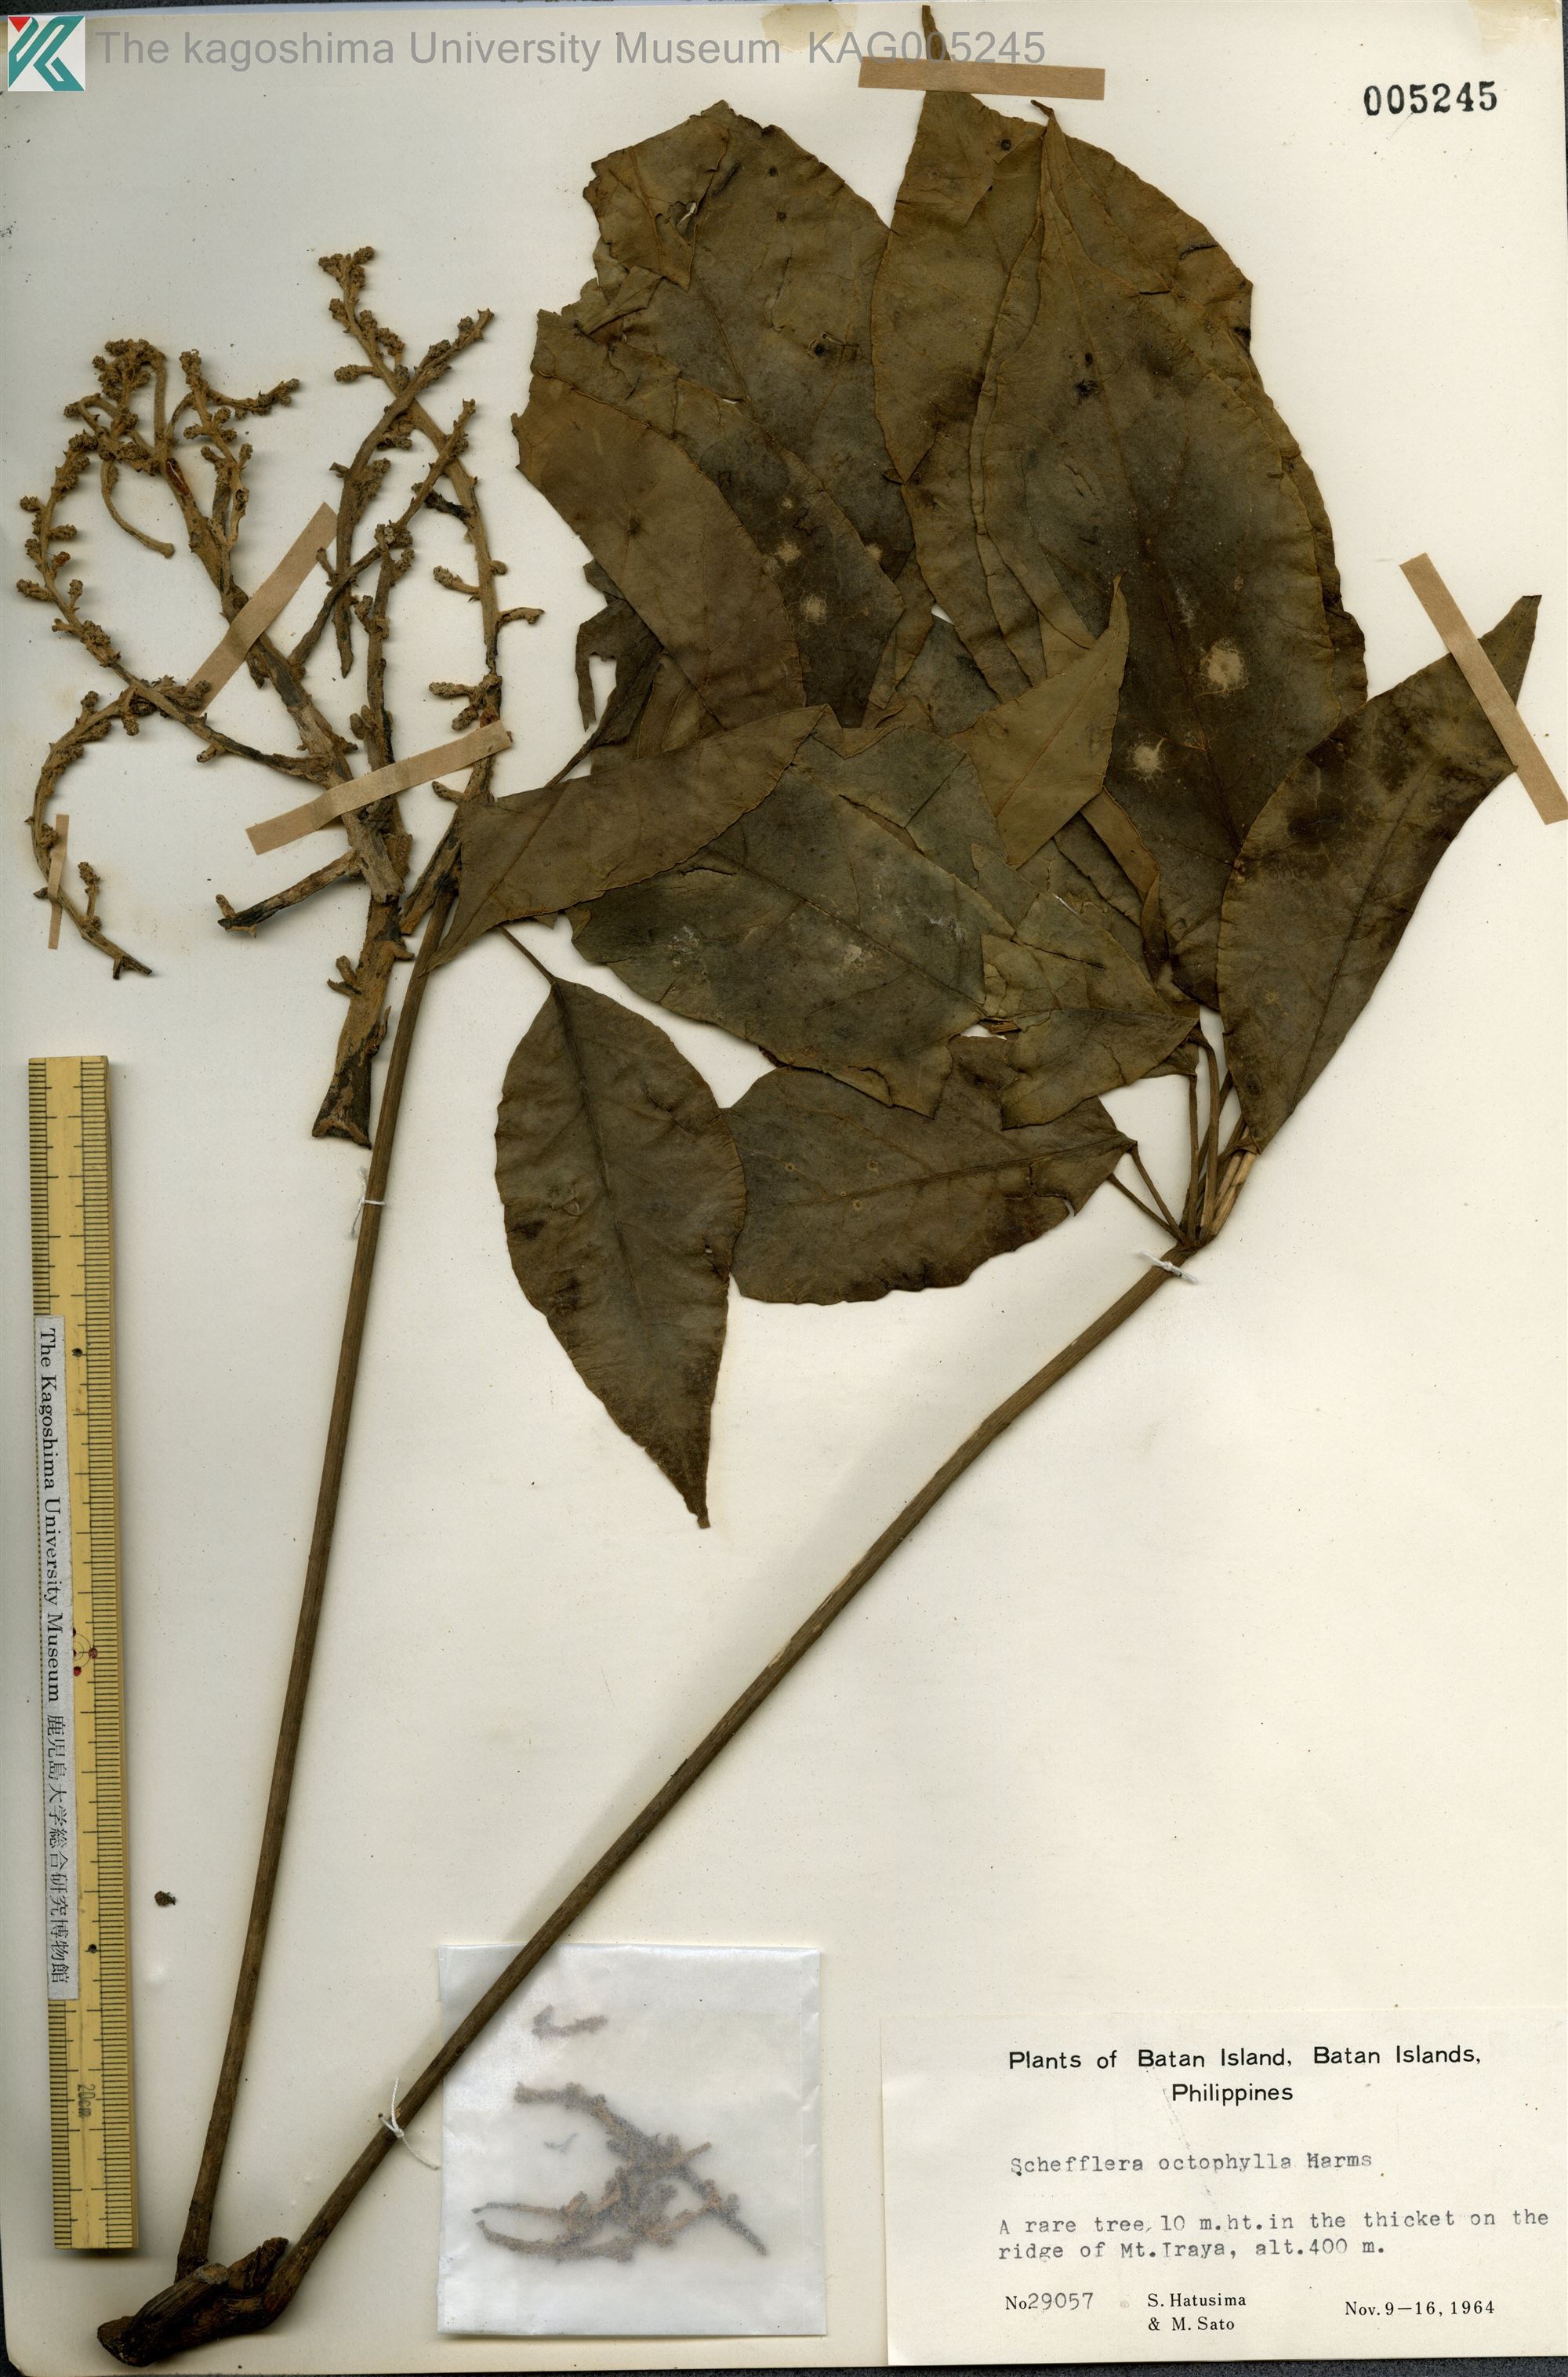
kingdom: Plantae
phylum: Tracheophyta
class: Magnoliopsida
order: Apiales
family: Araliaceae
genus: Heptapleurum
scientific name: Heptapleurum heptaphyllum
